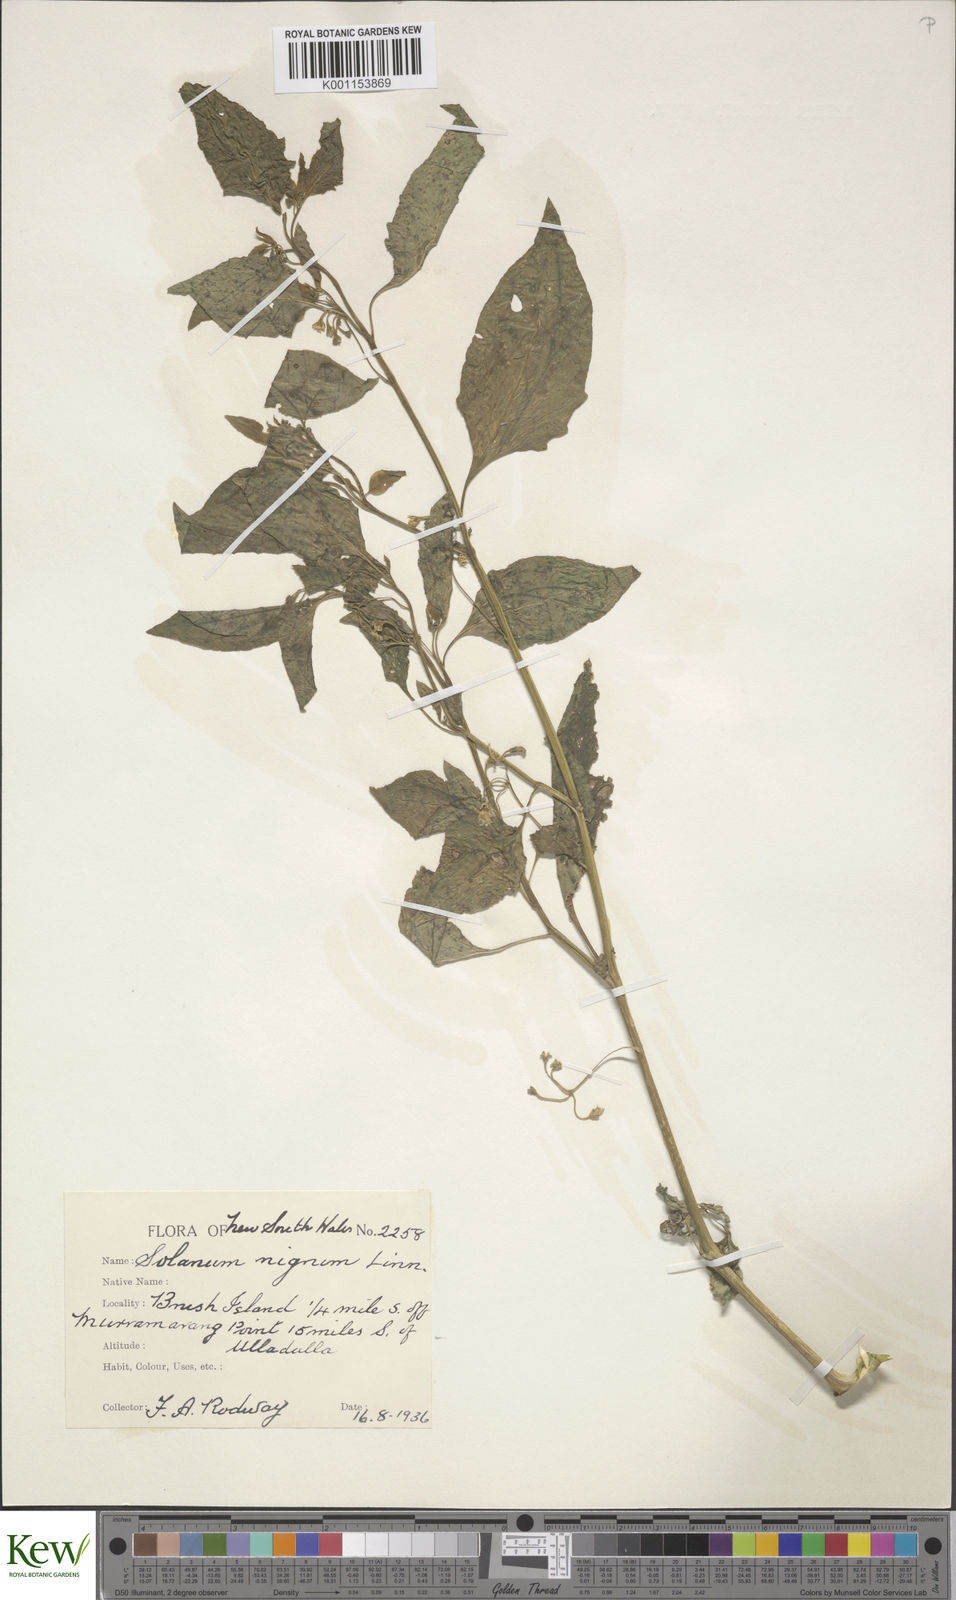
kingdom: Plantae
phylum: Tracheophyta
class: Magnoliopsida
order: Solanales
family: Solanaceae
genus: Solanum
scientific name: Solanum americanum
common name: American black nightshade
